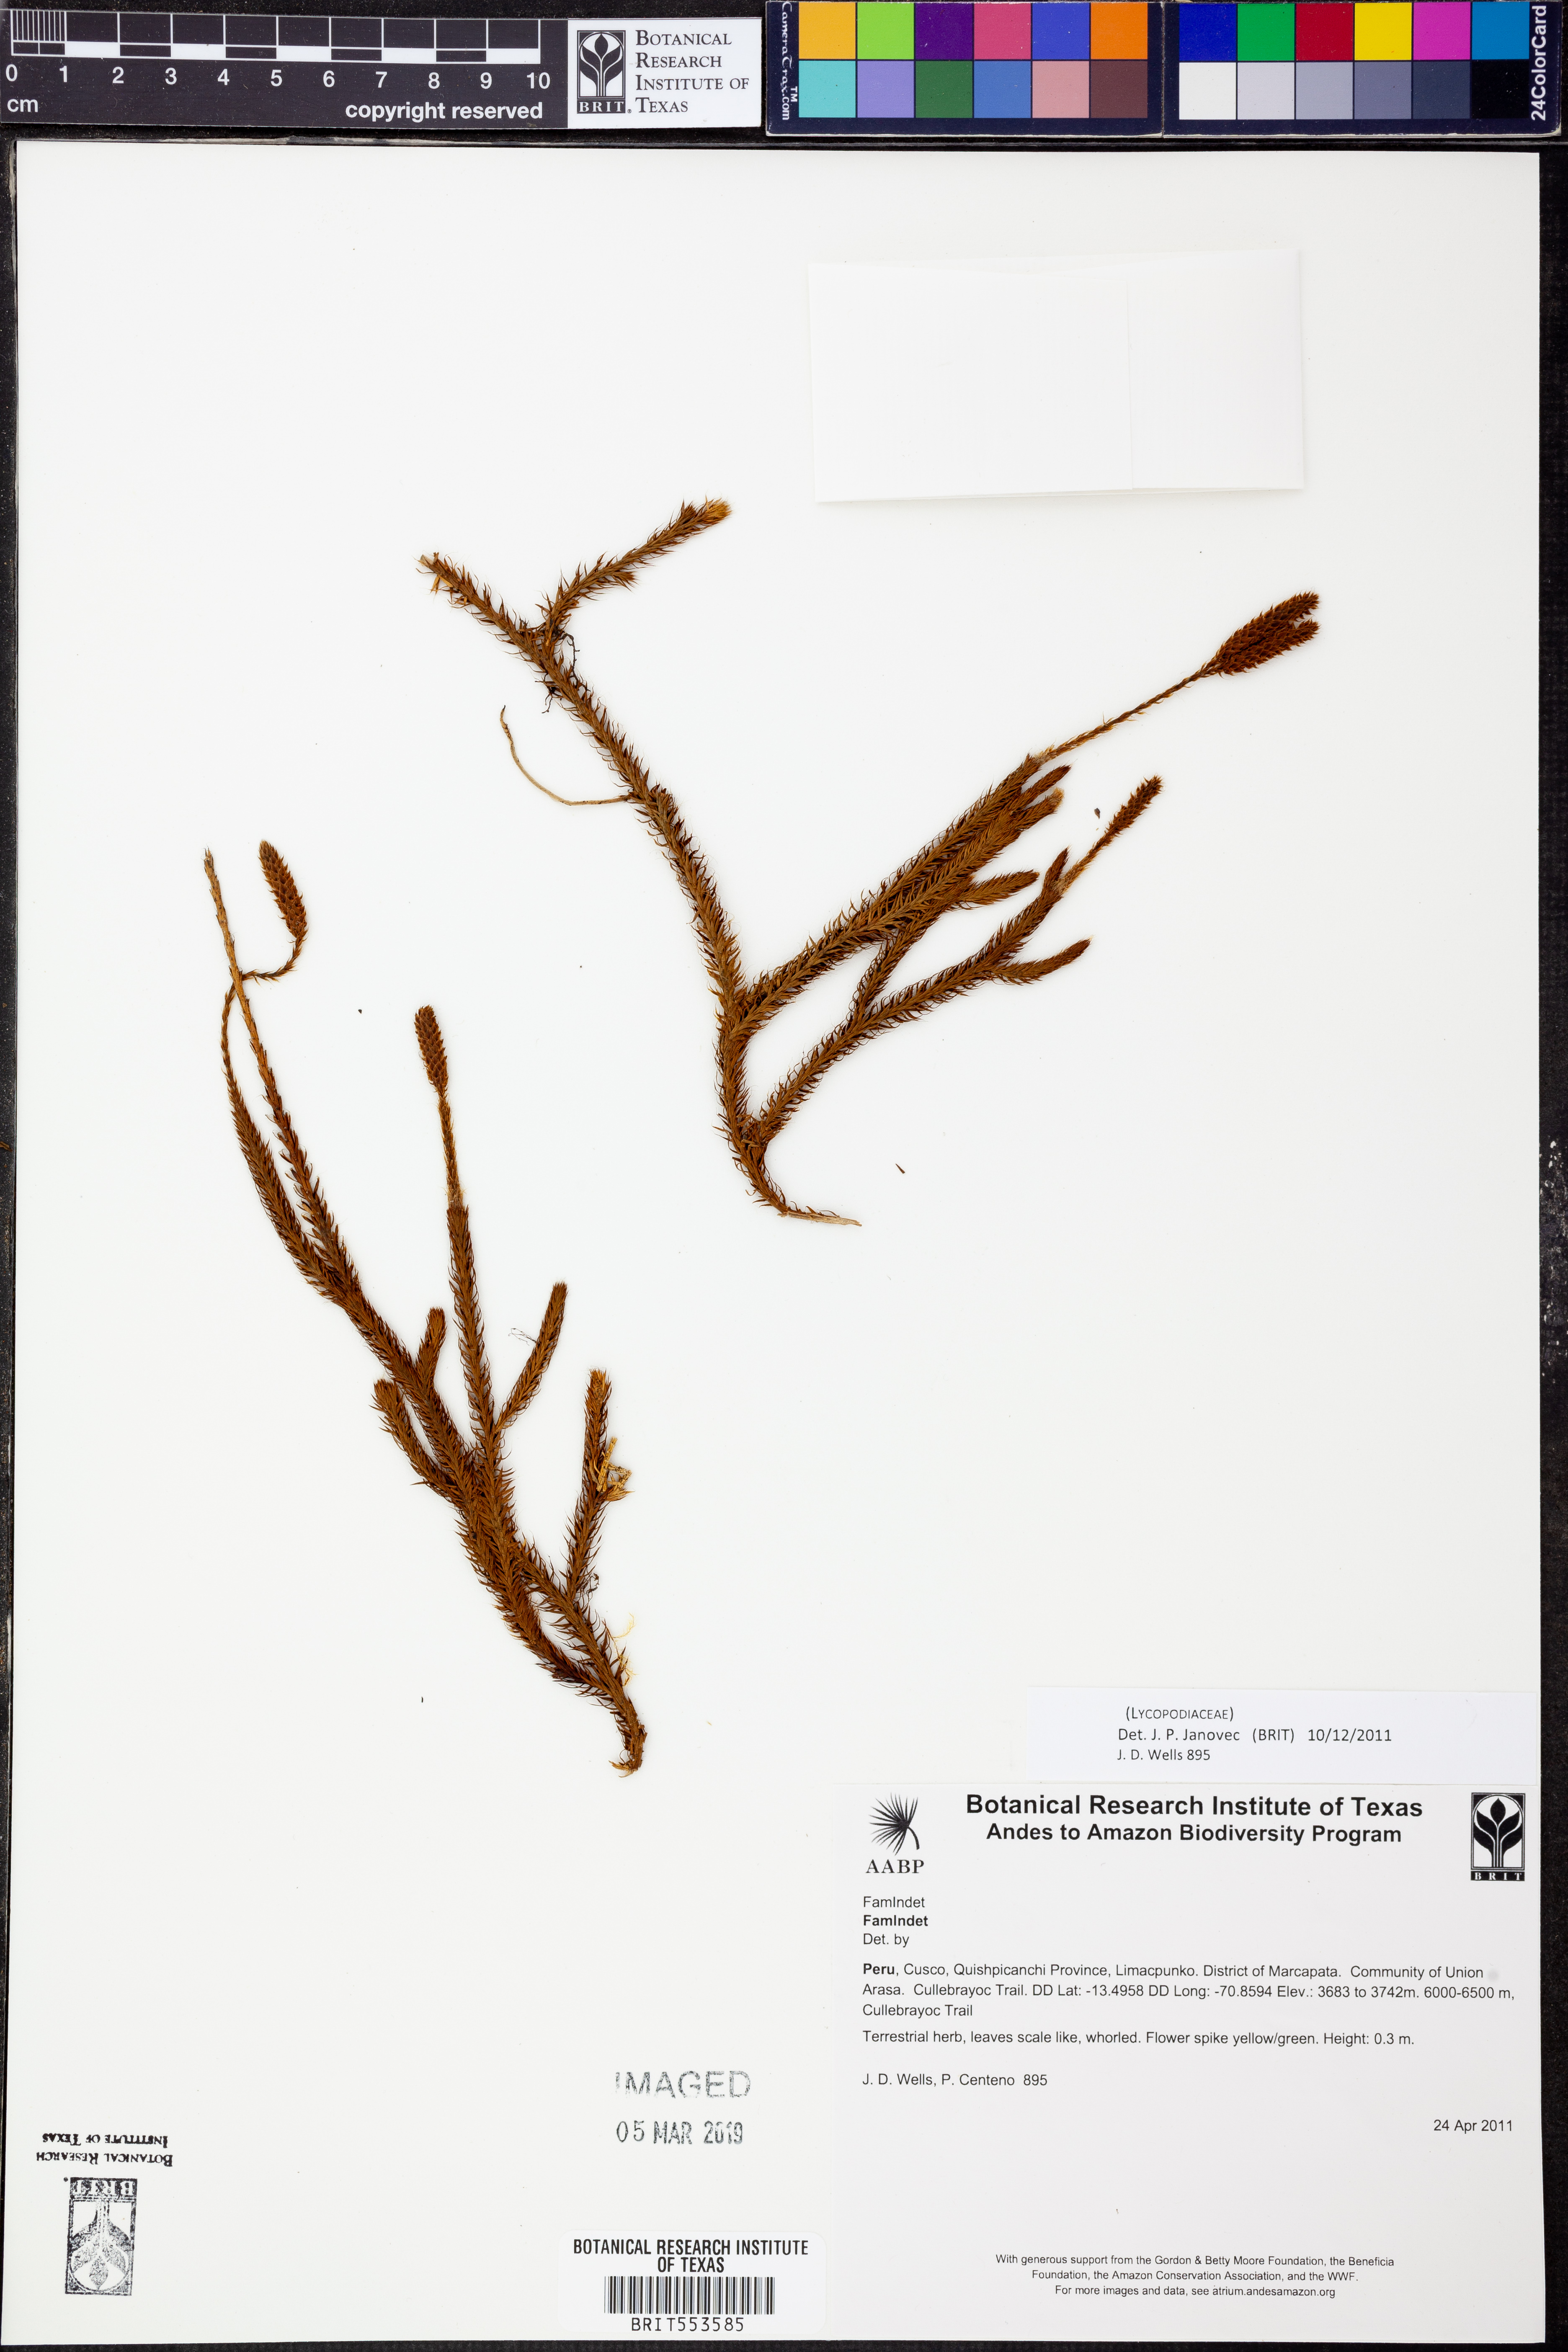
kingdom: Plantae
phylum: Tracheophyta
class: Lycopodiopsida
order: Lycopodiales
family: Lycopodiaceae
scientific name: Lycopodiaceae
